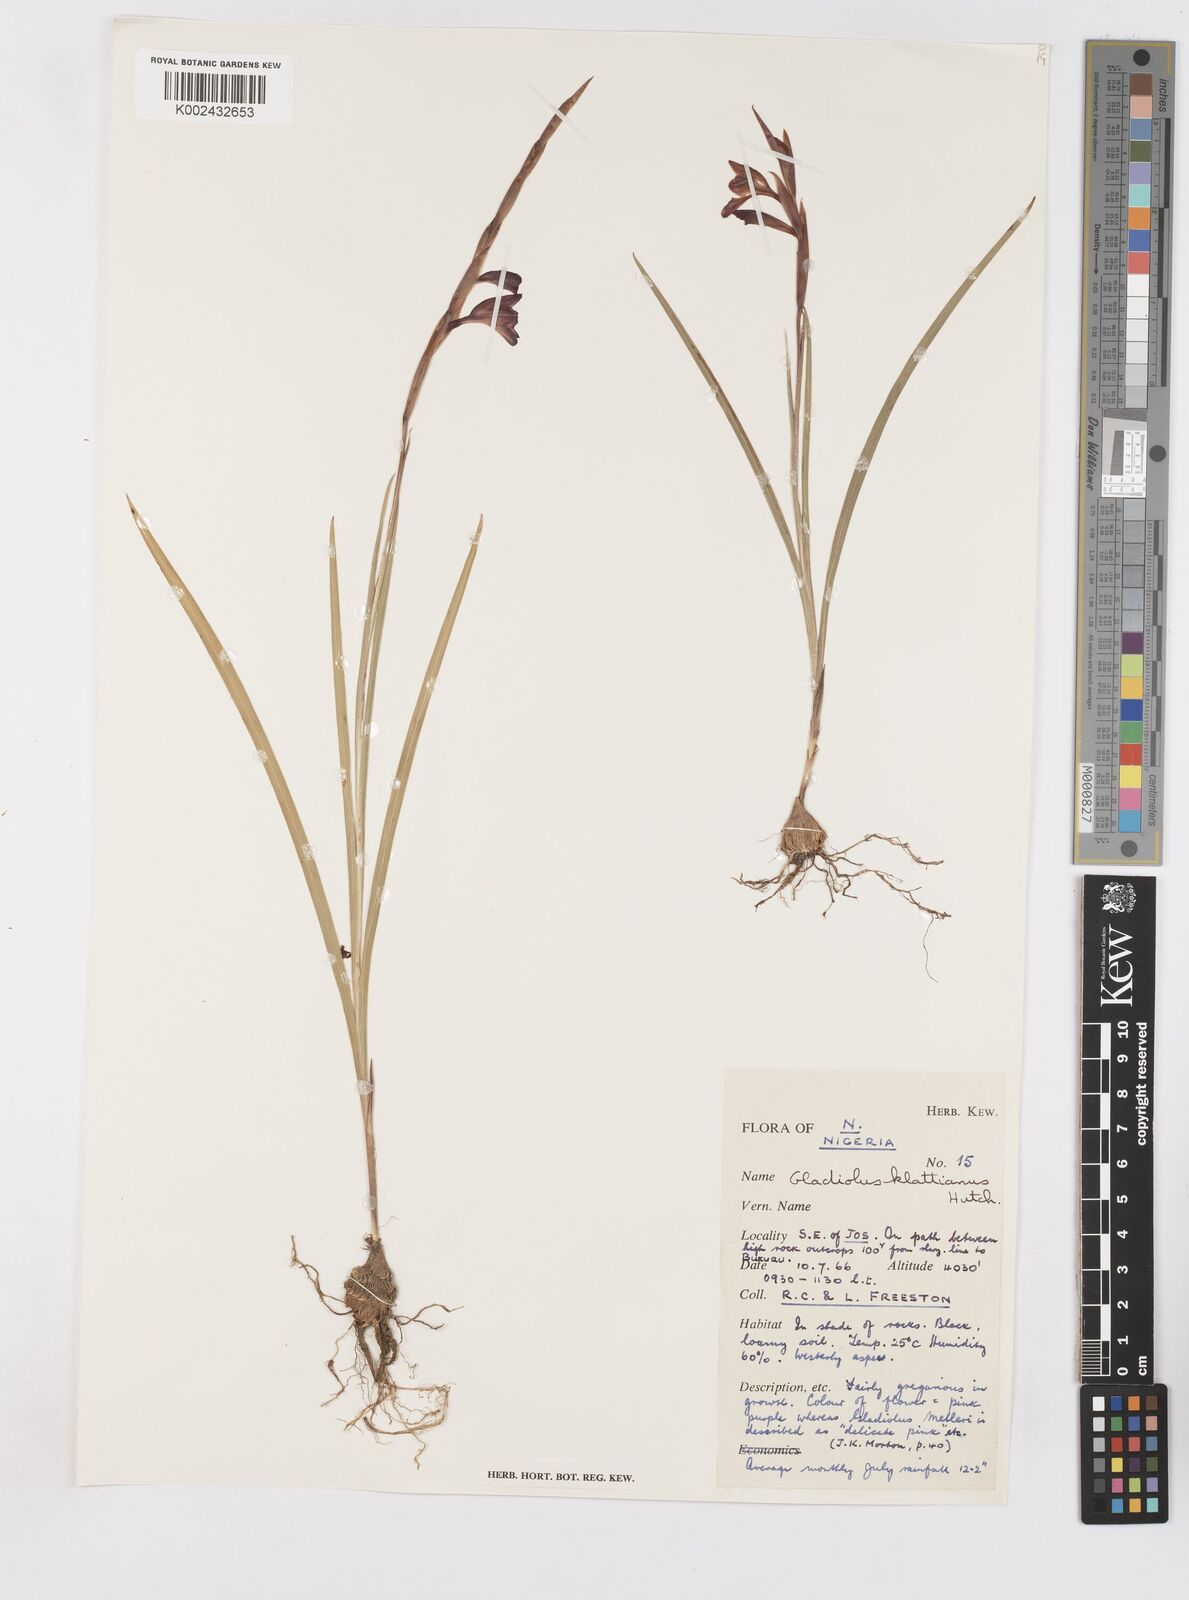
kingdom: Plantae
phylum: Tracheophyta
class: Liliopsida
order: Asparagales
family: Iridaceae
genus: Gladiolus
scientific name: Gladiolus gregarius
